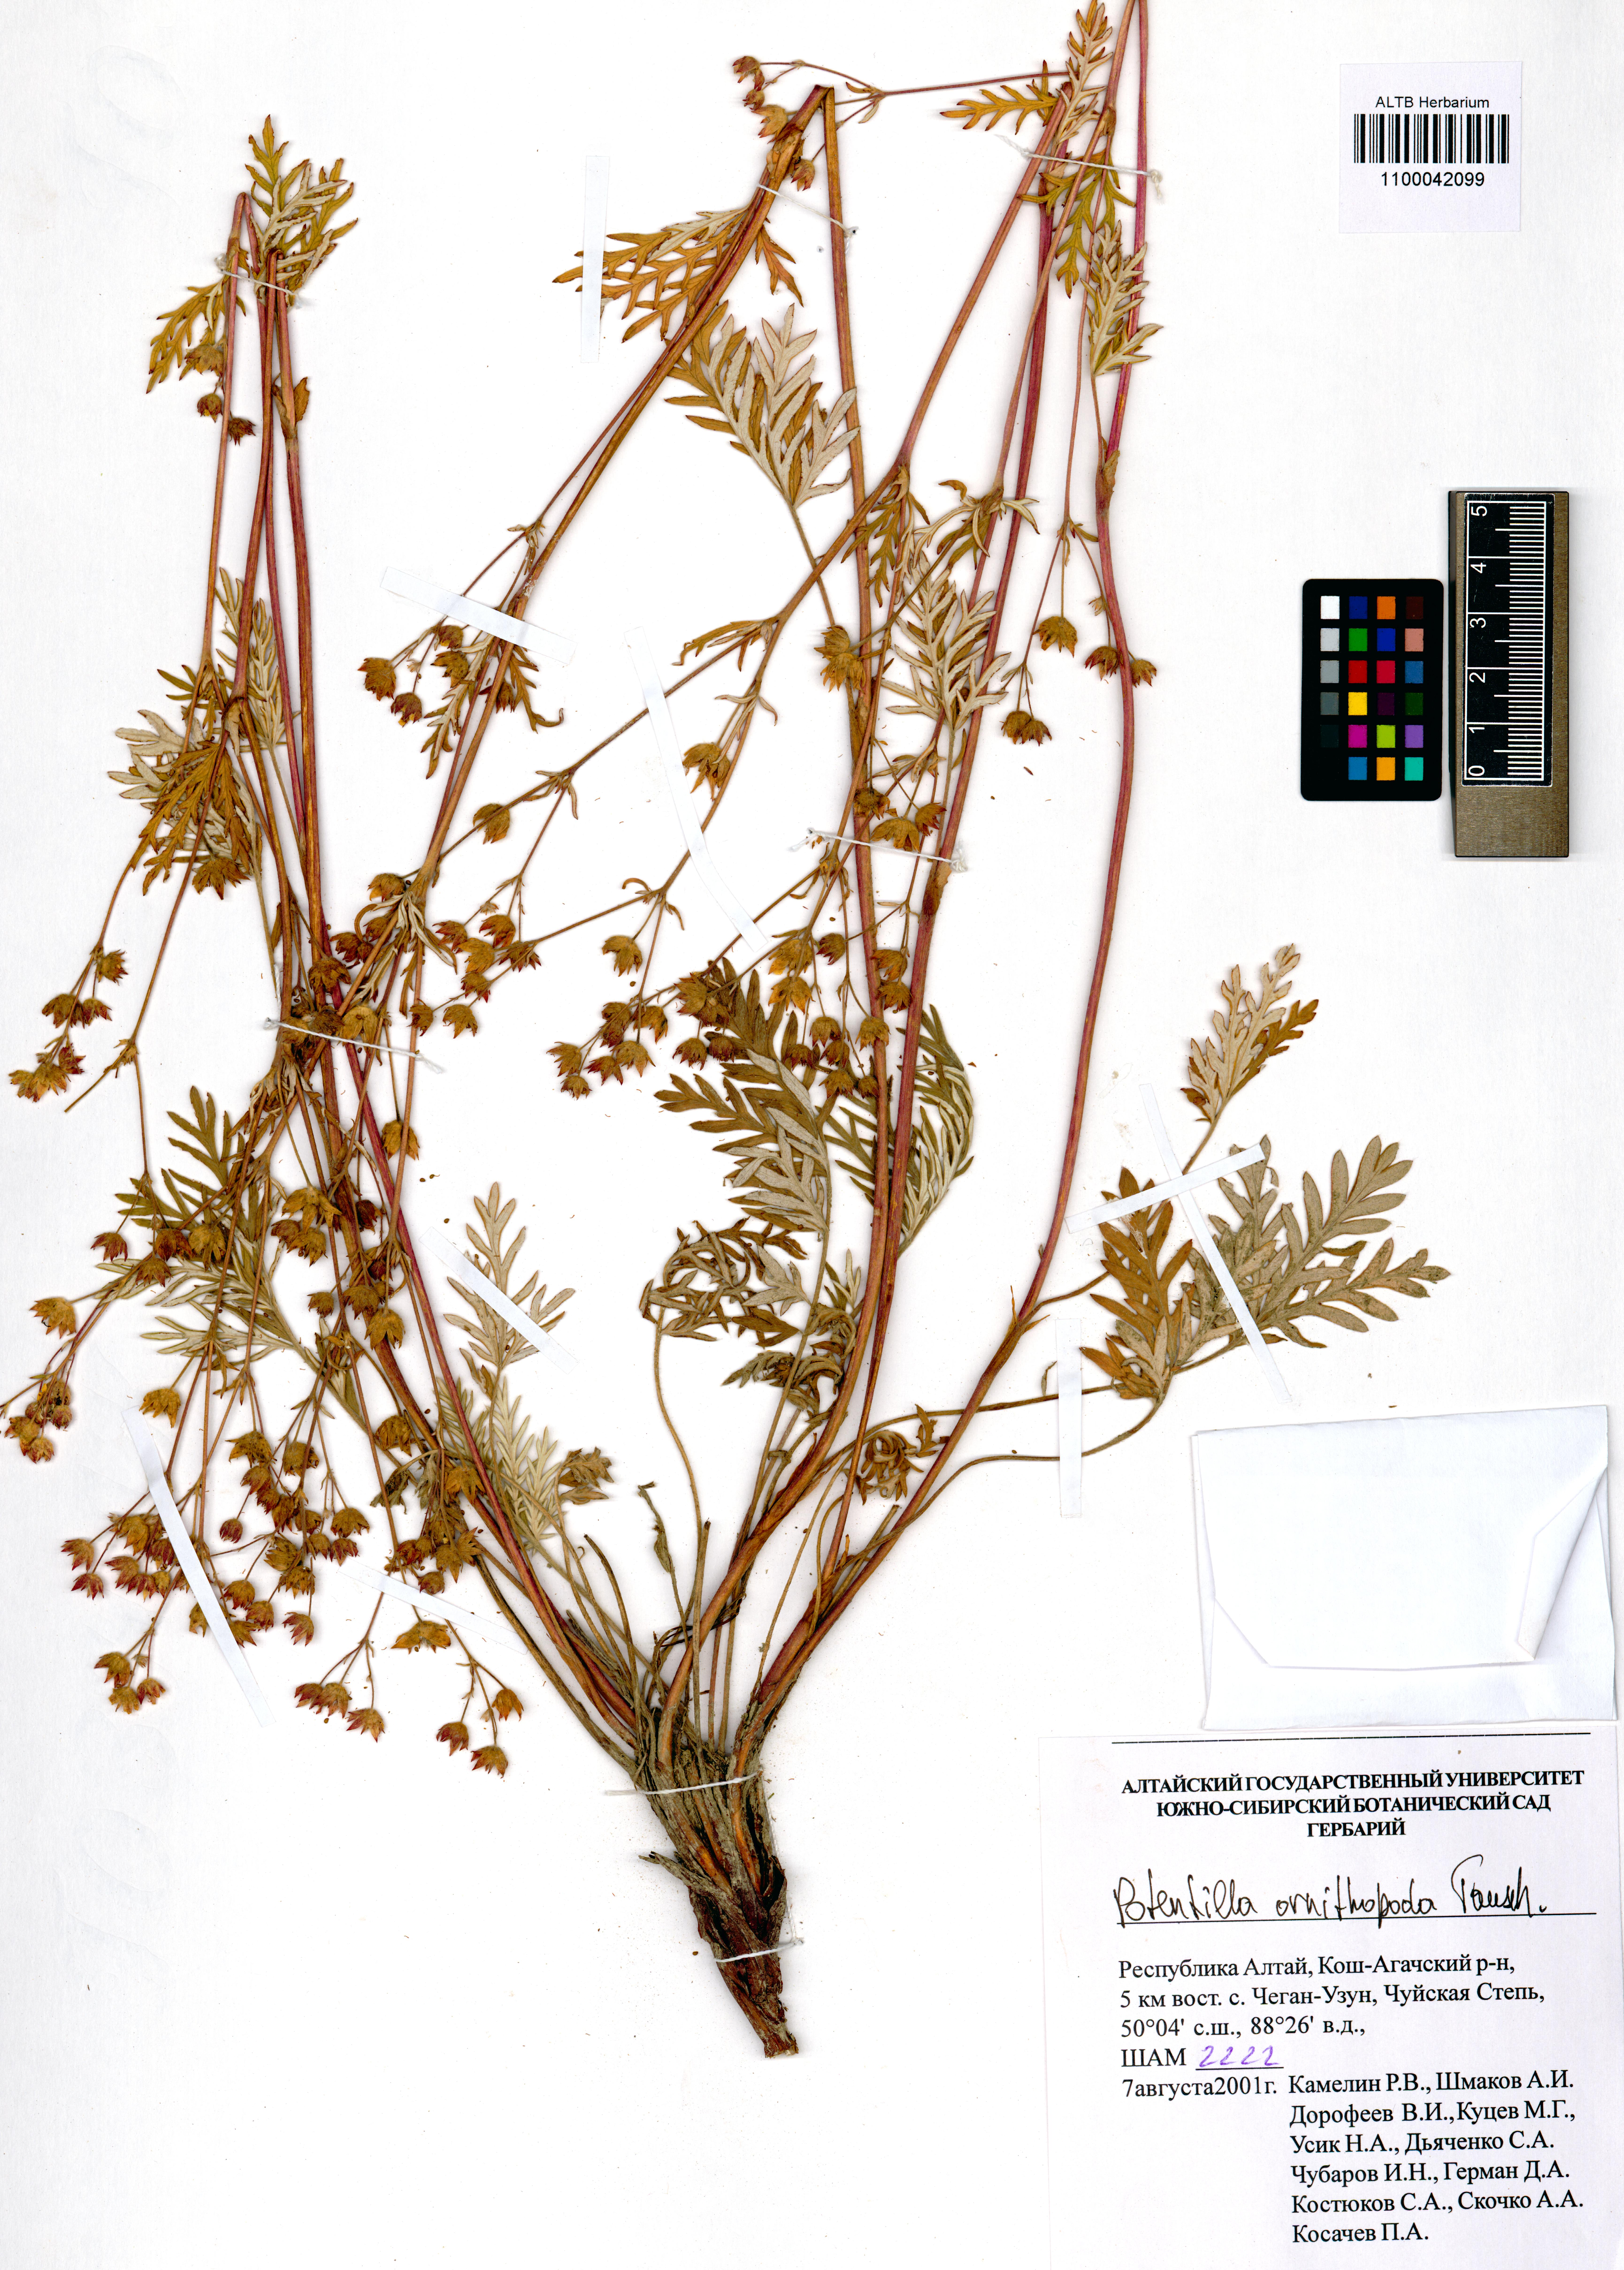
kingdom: Plantae
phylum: Tracheophyta
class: Magnoliopsida
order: Rosales
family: Rosaceae
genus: Potentilla
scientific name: Potentilla ornithopoda
